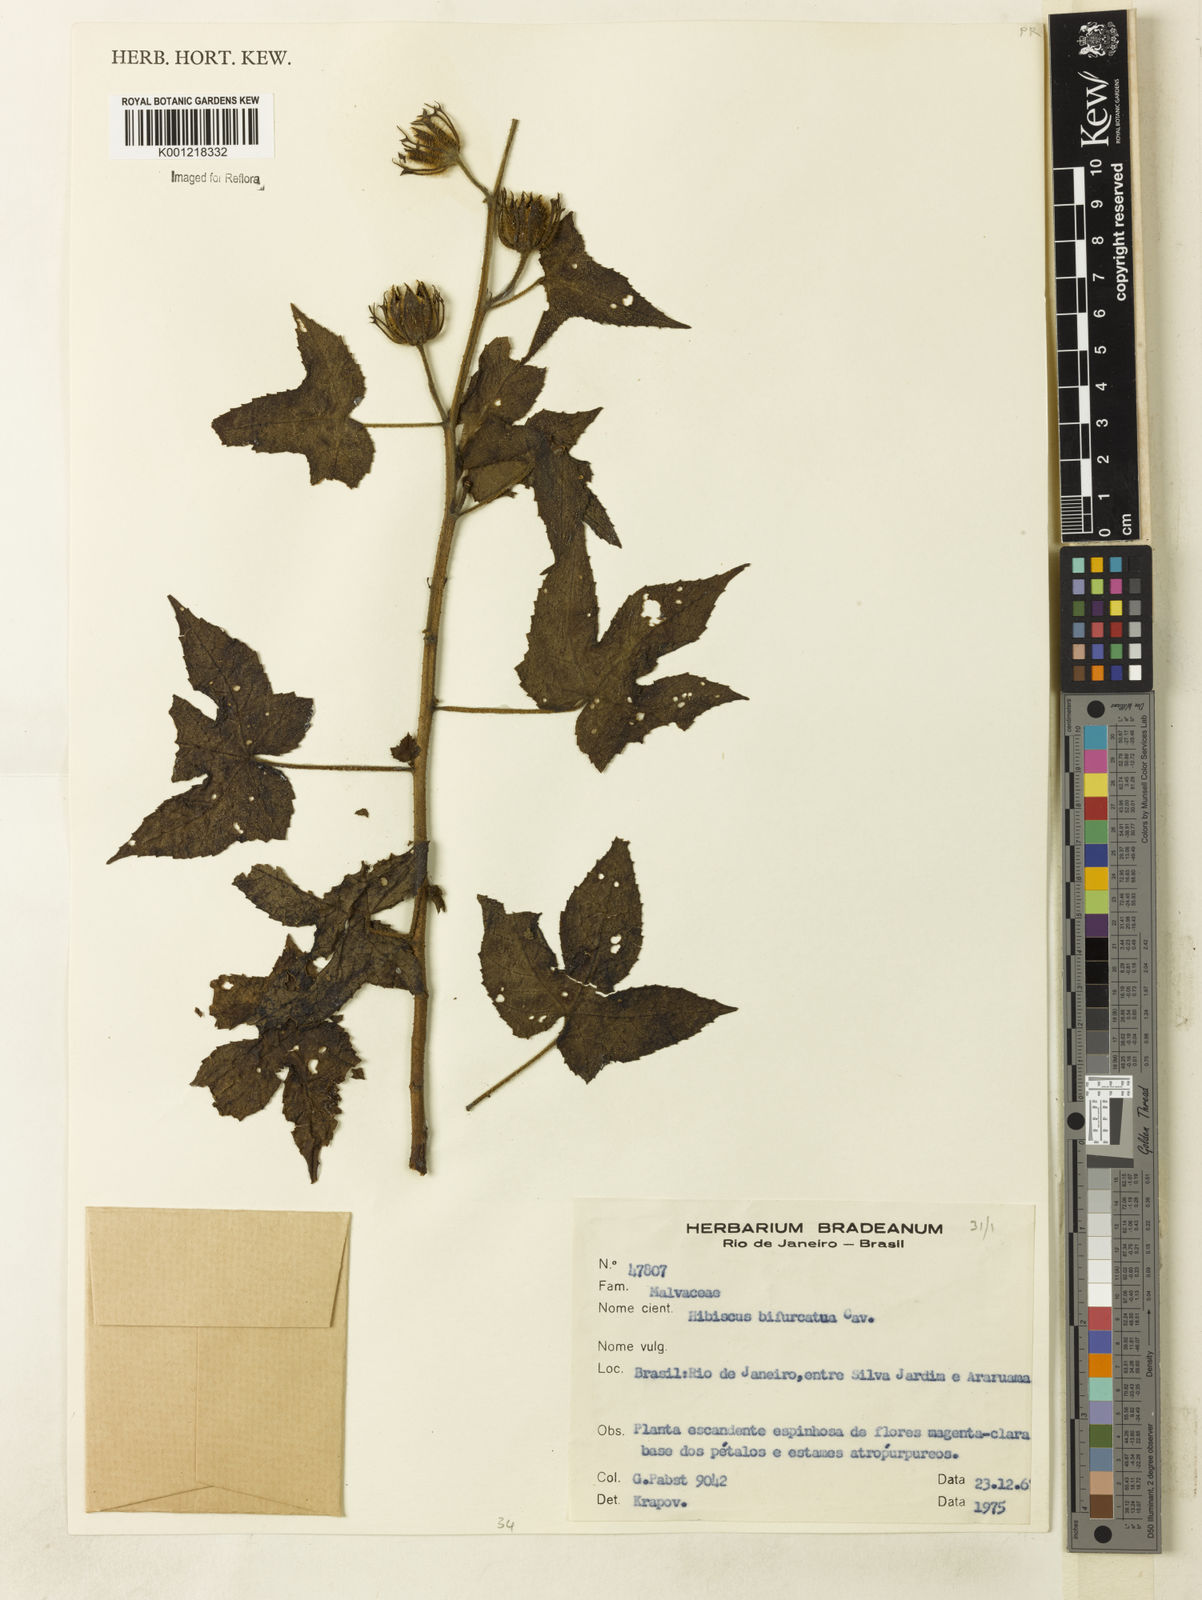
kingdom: Plantae
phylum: Tracheophyta
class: Magnoliopsida
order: Malvales
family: Malvaceae
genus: Hibiscus
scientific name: Hibiscus bifurcatus
